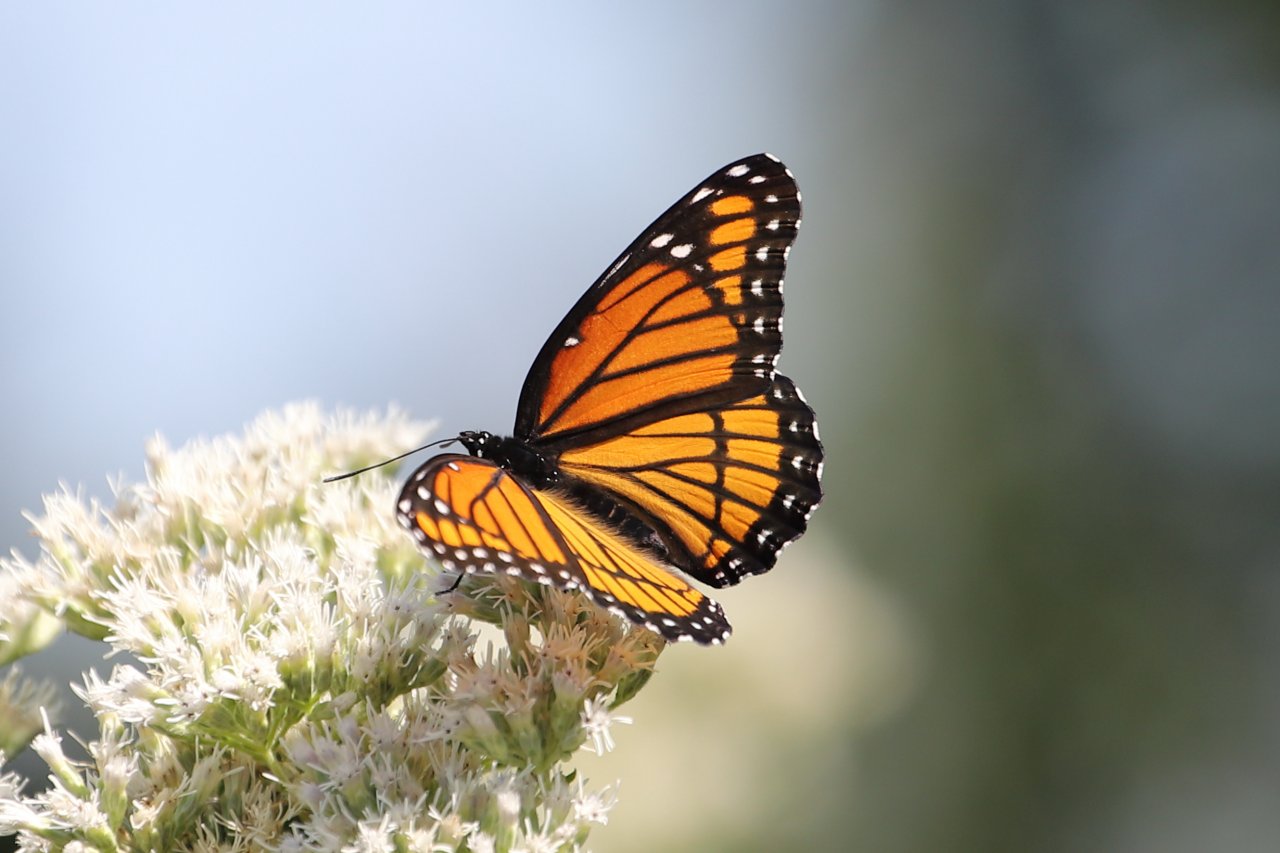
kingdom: Animalia
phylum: Arthropoda
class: Insecta
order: Lepidoptera
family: Nymphalidae
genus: Limenitis
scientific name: Limenitis archippus
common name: Viceroy
